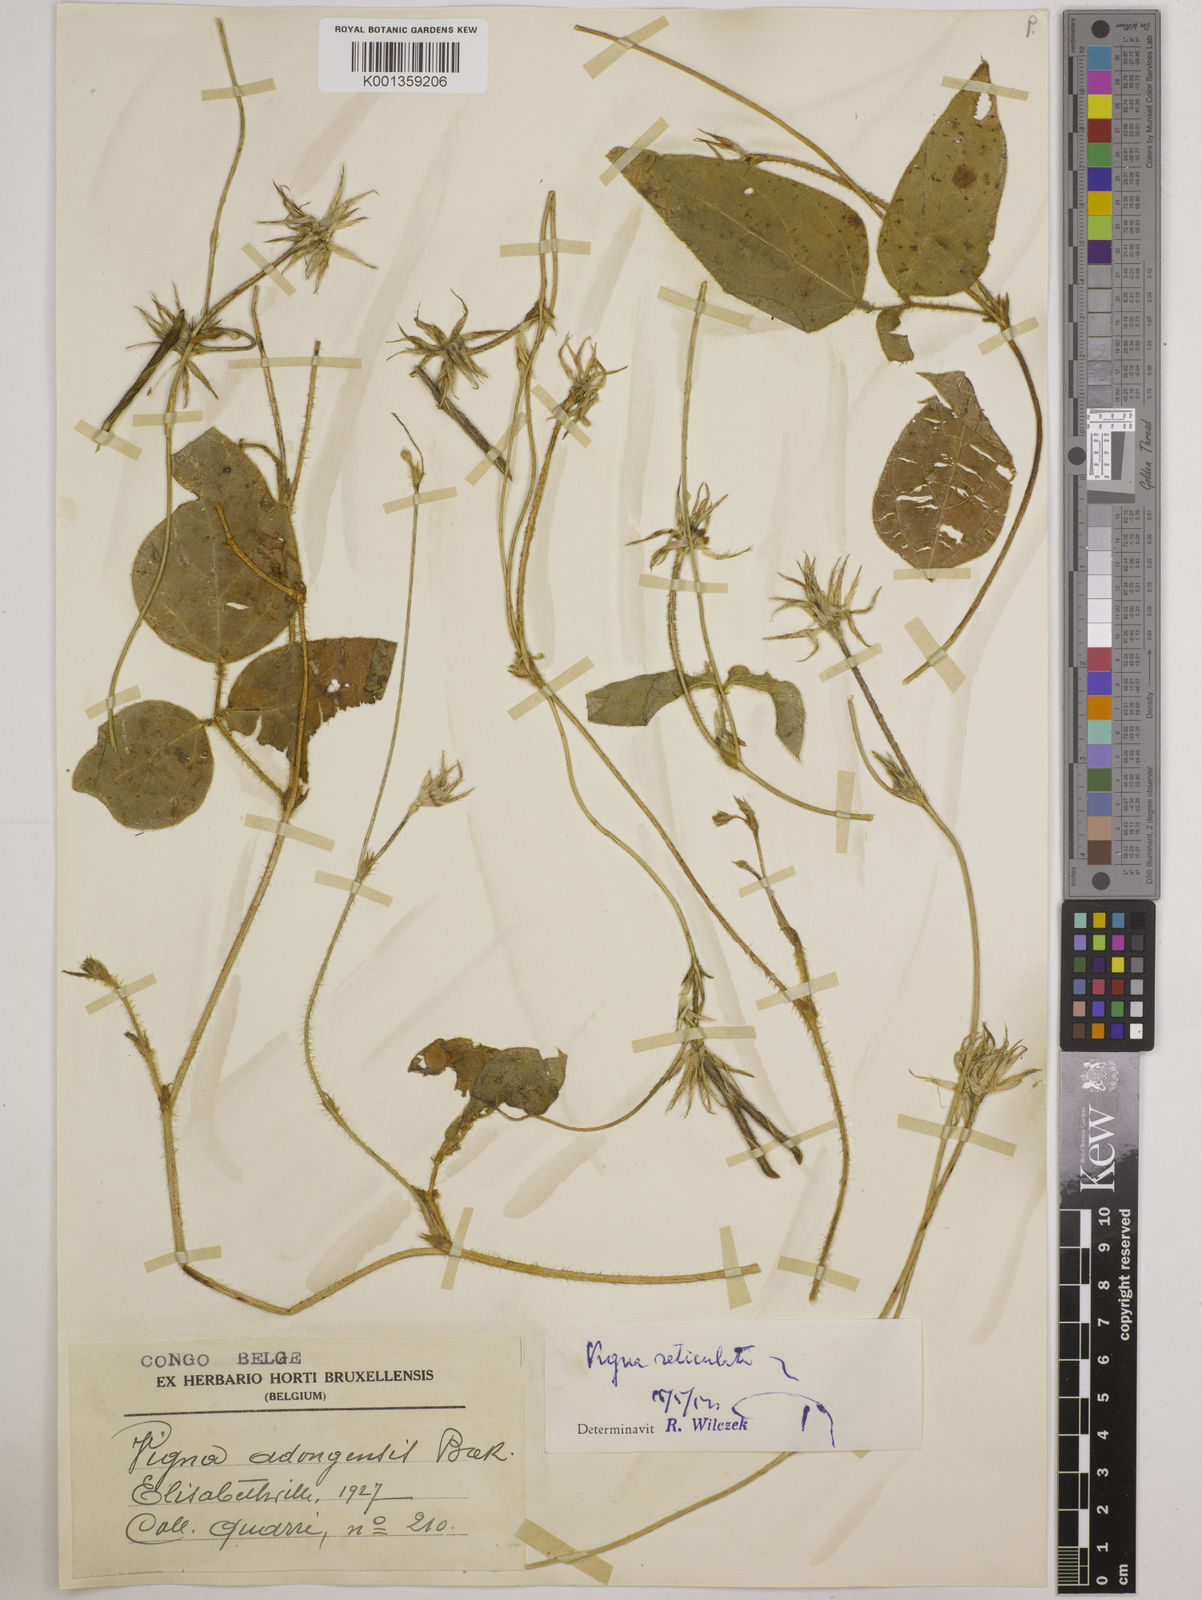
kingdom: Plantae
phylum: Tracheophyta
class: Magnoliopsida
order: Fabales
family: Fabaceae
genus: Vigna
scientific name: Vigna reticulata
